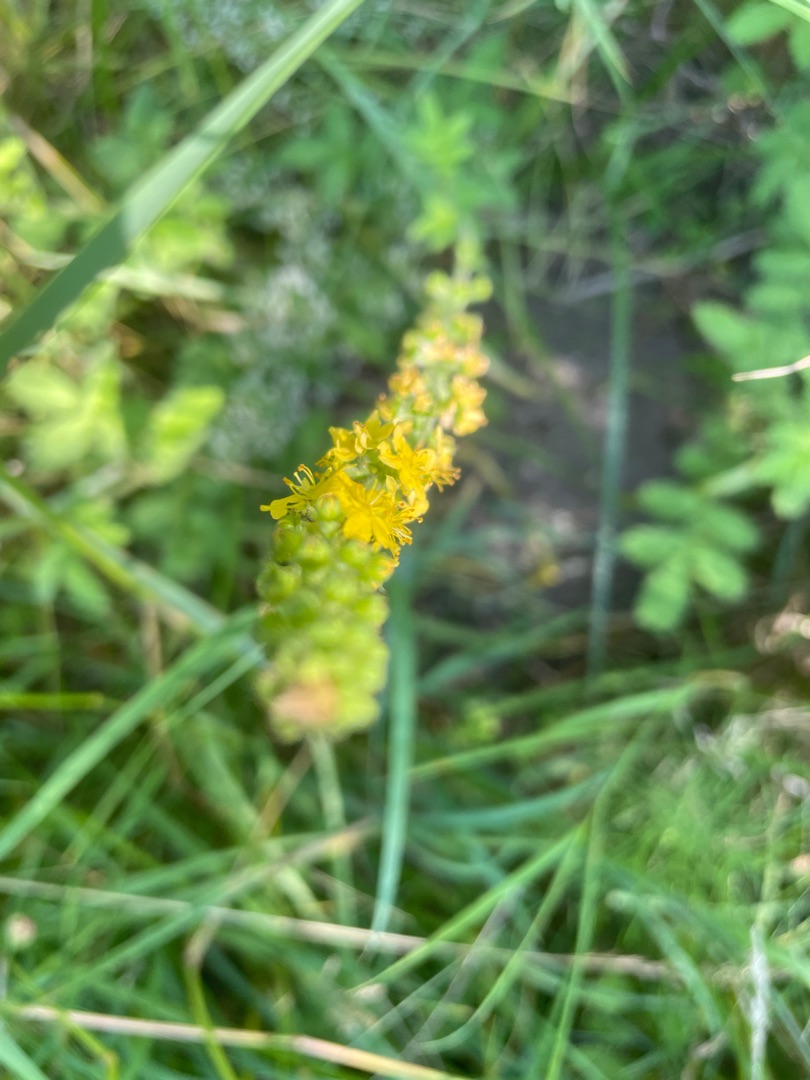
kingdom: Plantae
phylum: Tracheophyta
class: Magnoliopsida
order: Rosales
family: Rosaceae
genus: Agrimonia
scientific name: Agrimonia
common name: Agermåneslægten
